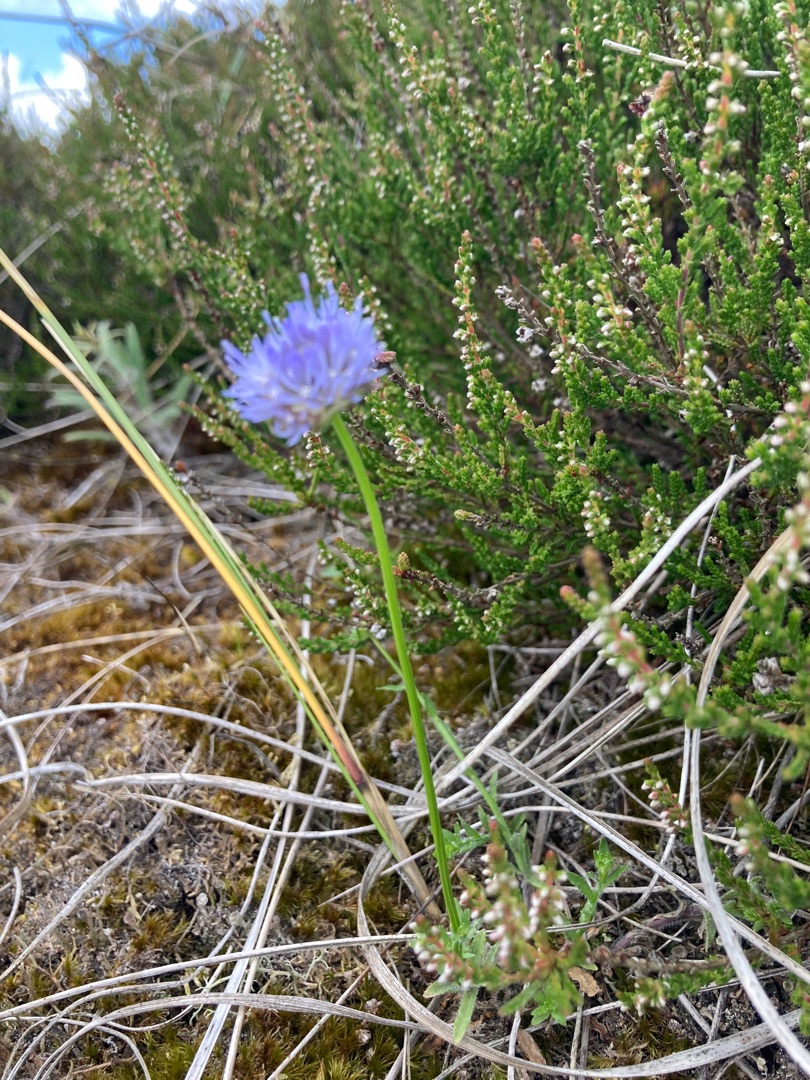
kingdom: Plantae
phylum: Tracheophyta
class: Magnoliopsida
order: Asterales
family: Campanulaceae
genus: Jasione
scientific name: Jasione montana
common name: Blåmunke
